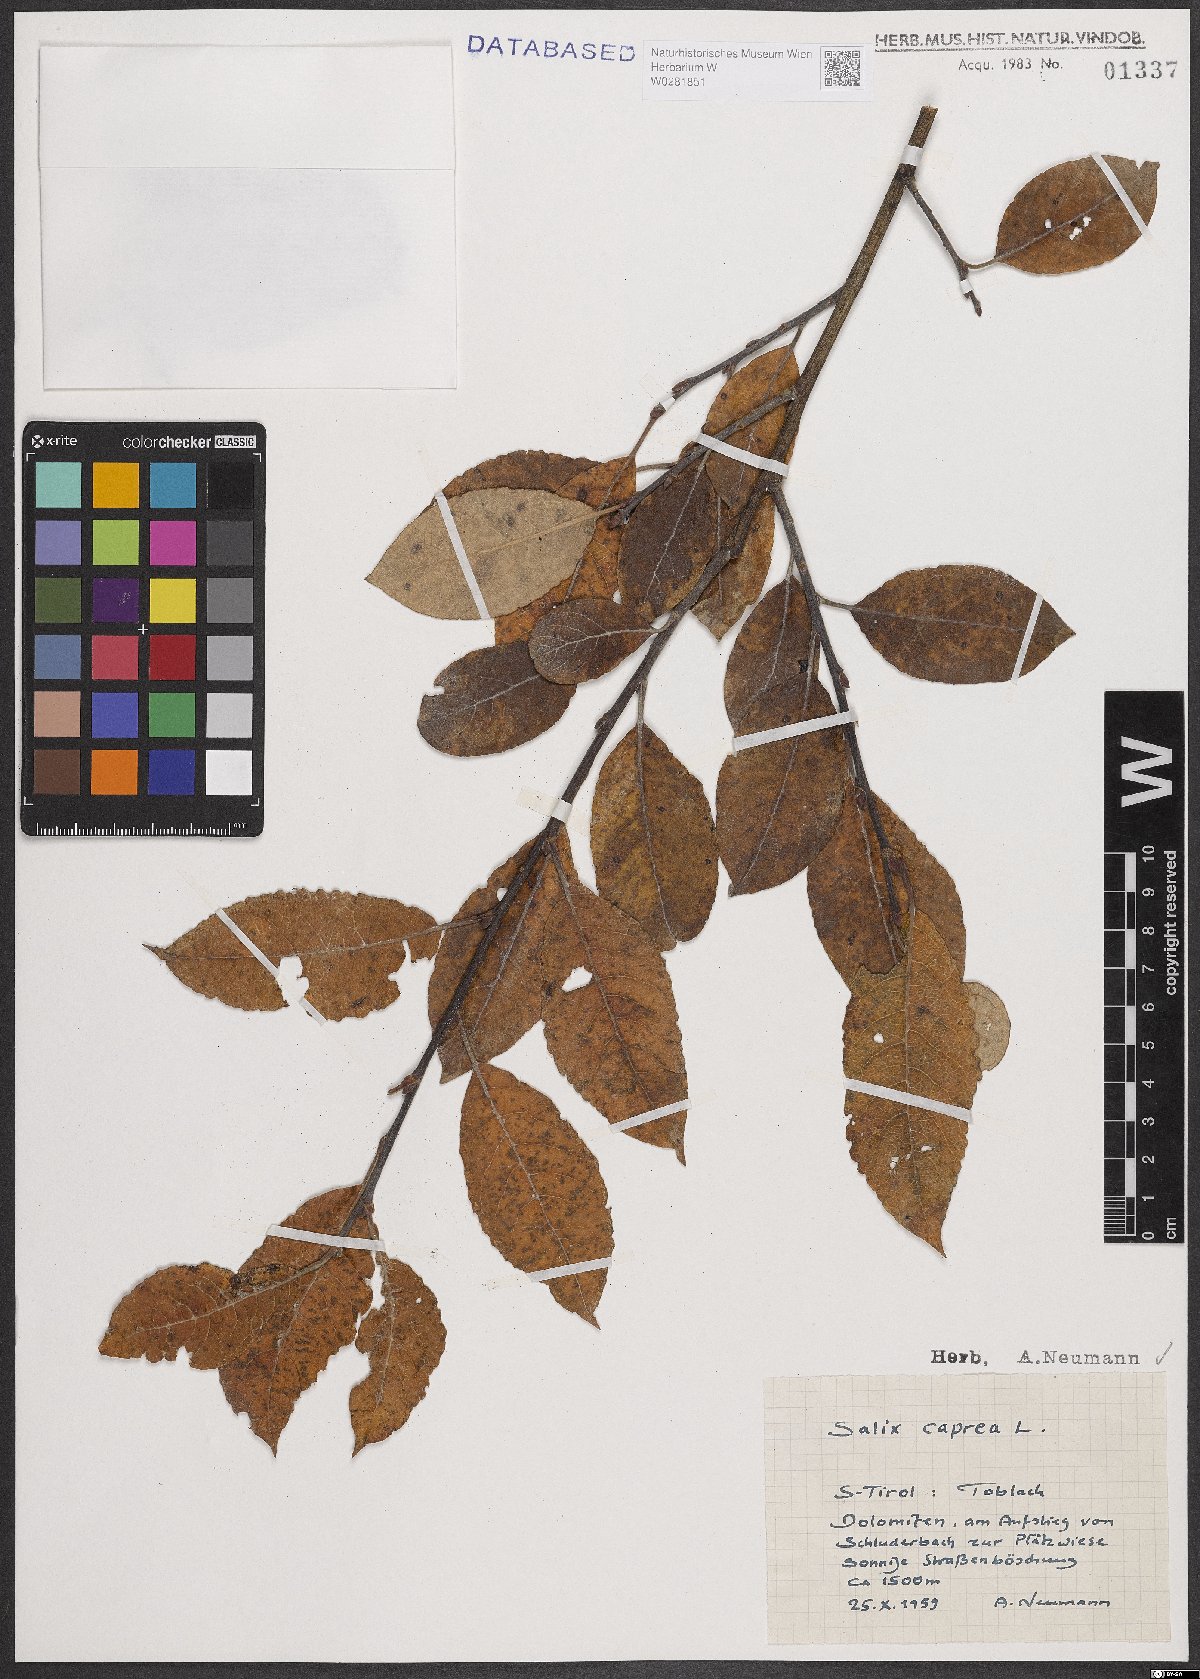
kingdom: Plantae
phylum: Tracheophyta
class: Magnoliopsida
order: Malpighiales
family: Salicaceae
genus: Salix
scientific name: Salix caprea
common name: Goat willow
